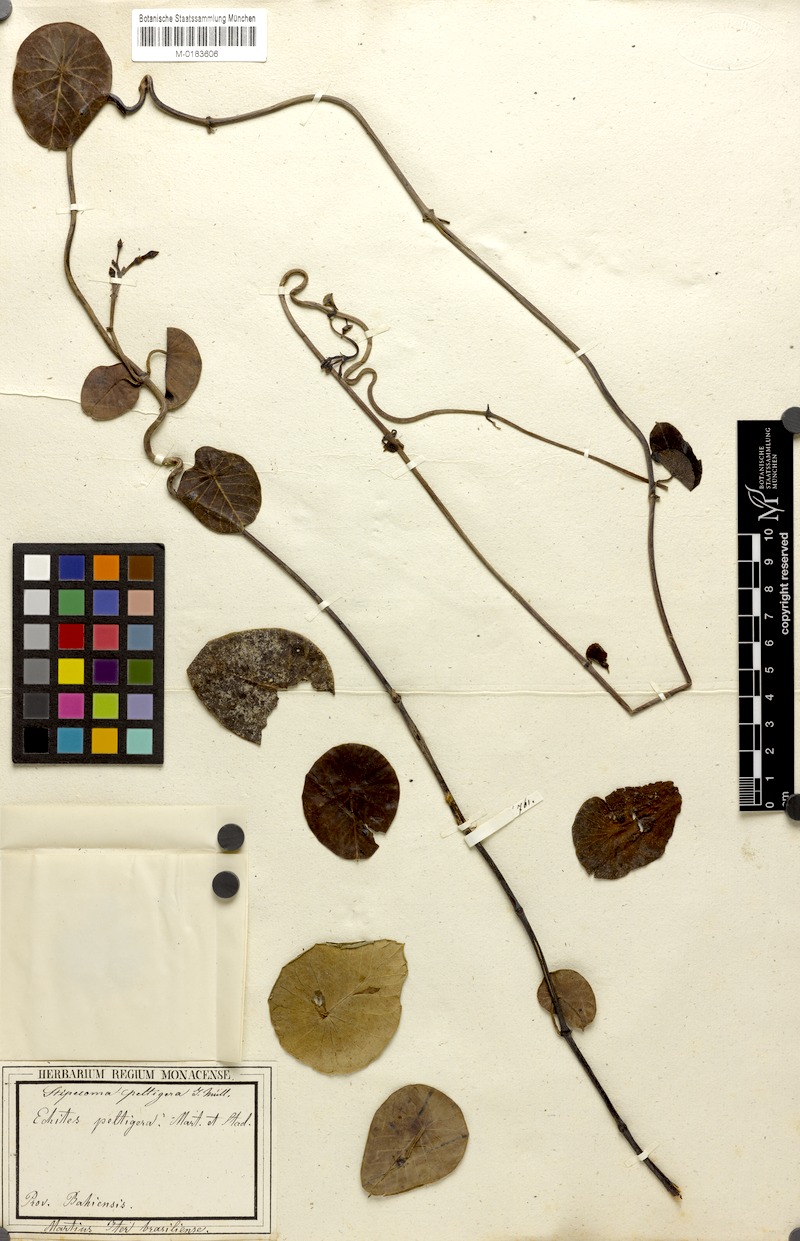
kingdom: Plantae
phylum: Tracheophyta
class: Magnoliopsida
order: Gentianales
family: Apocynaceae
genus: Stipecoma
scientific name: Stipecoma peltigera
